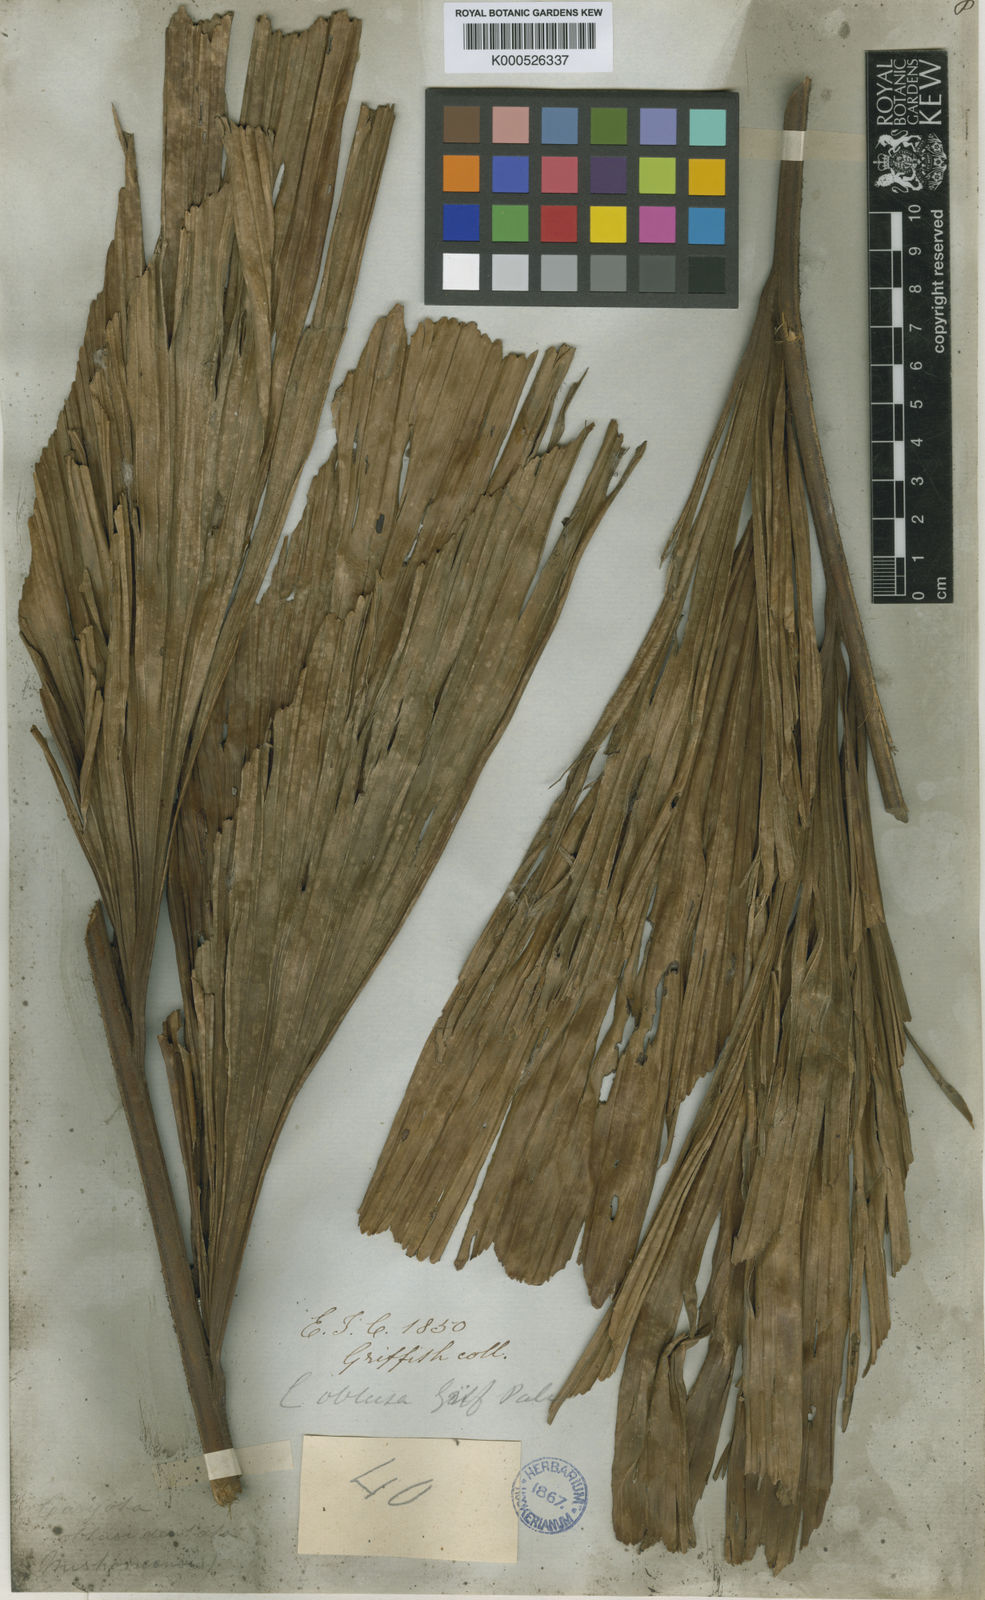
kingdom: Plantae
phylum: Tracheophyta
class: Liliopsida
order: Arecales
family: Arecaceae
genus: Caryota
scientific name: Caryota obtusa
